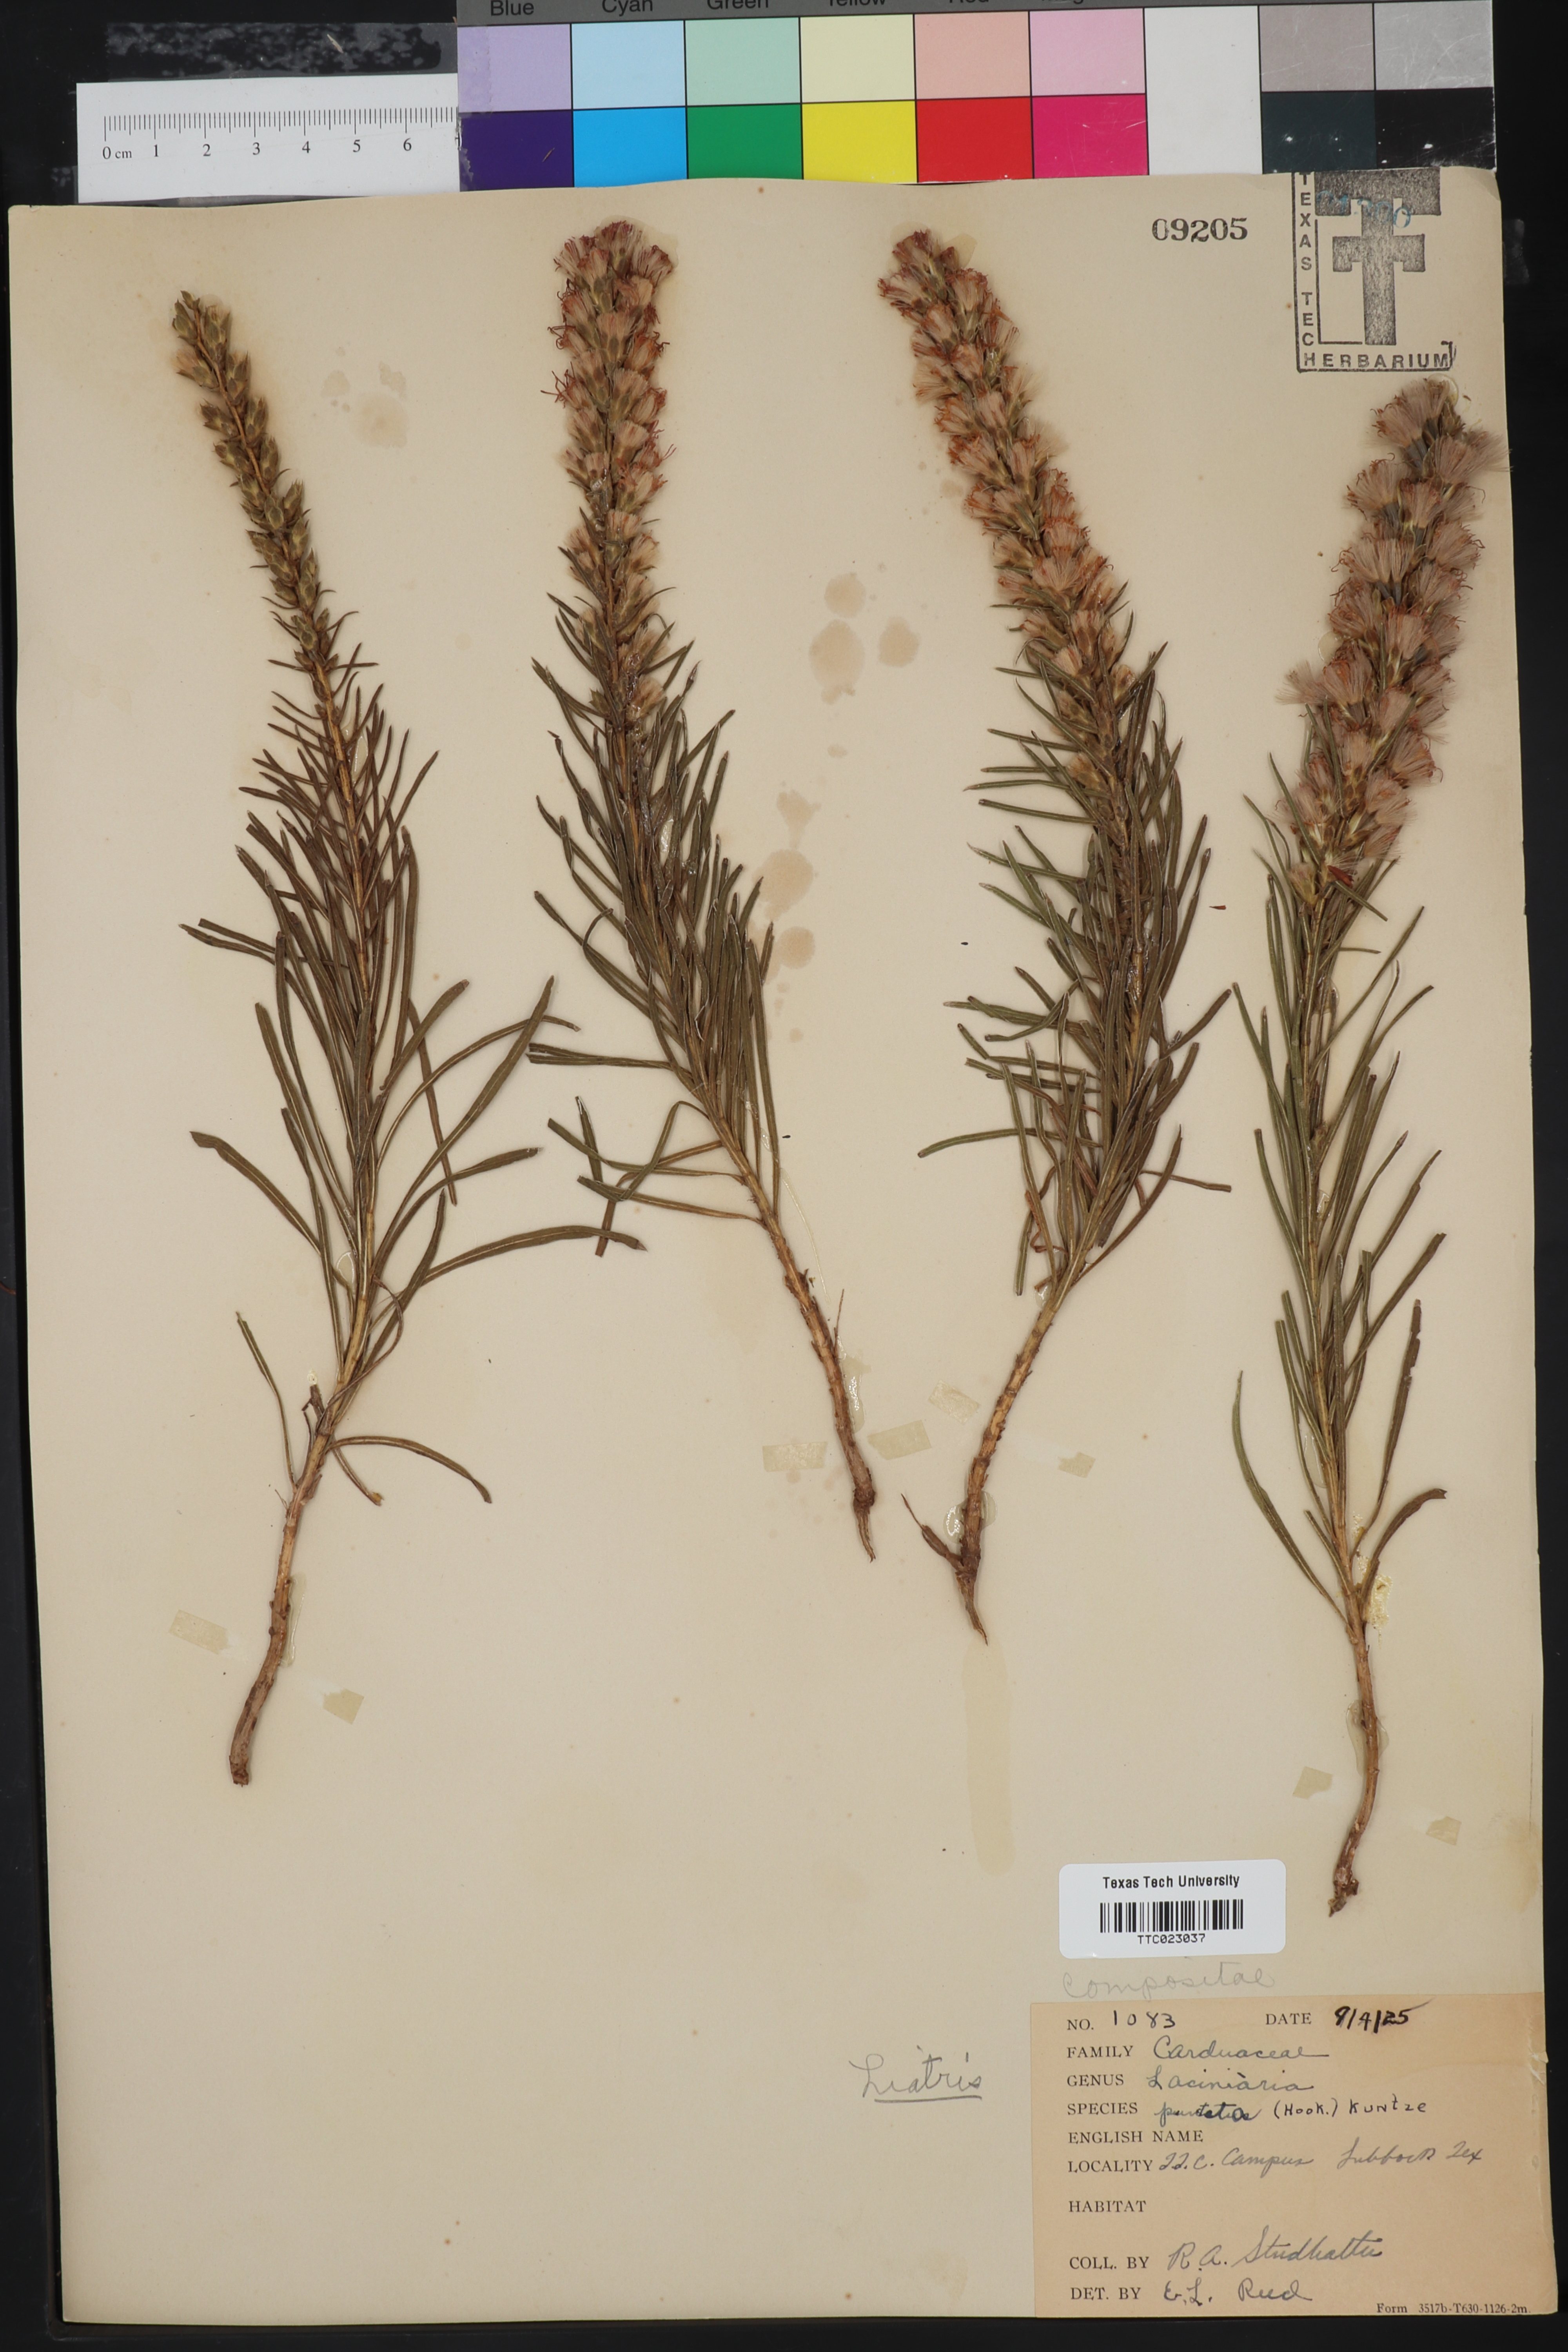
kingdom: Plantae
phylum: Tracheophyta
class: Magnoliopsida
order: Asterales
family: Asteraceae
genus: Laciniaria
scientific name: Laciniaria
